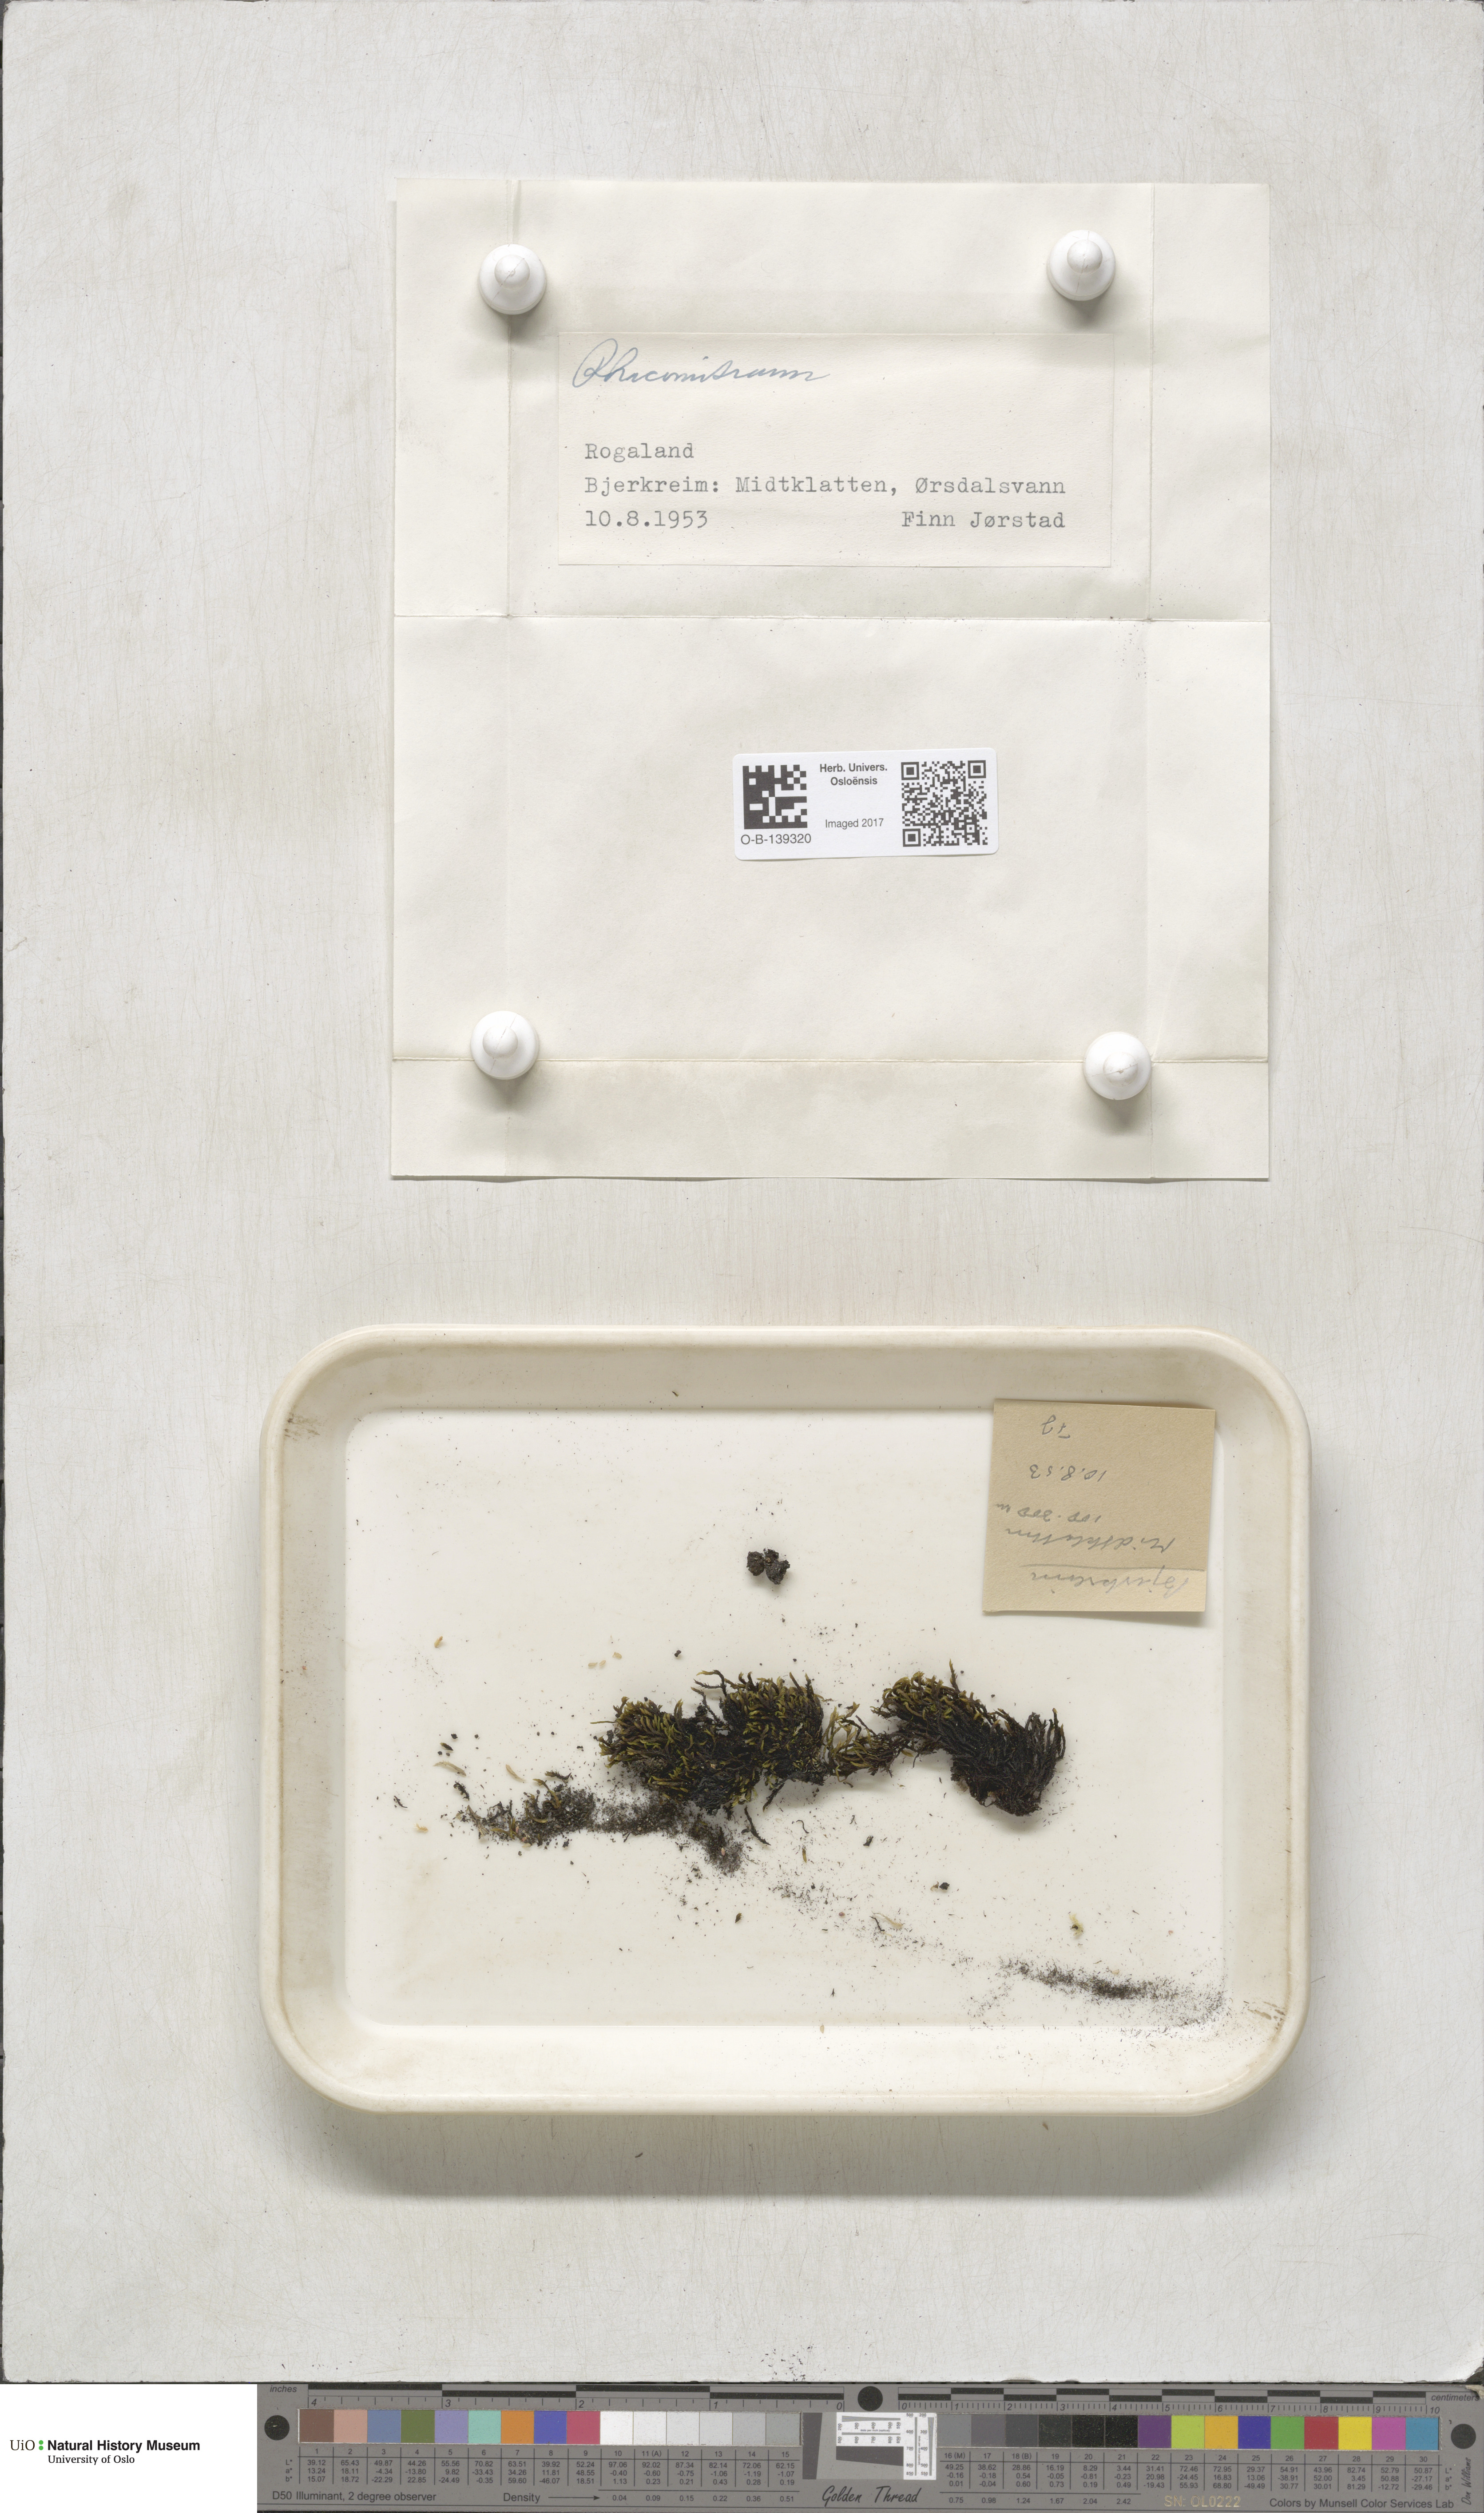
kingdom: Plantae
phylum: Bryophyta
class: Bryopsida
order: Grimmiales
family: Grimmiaceae
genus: Racomitrium
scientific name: Racomitrium
